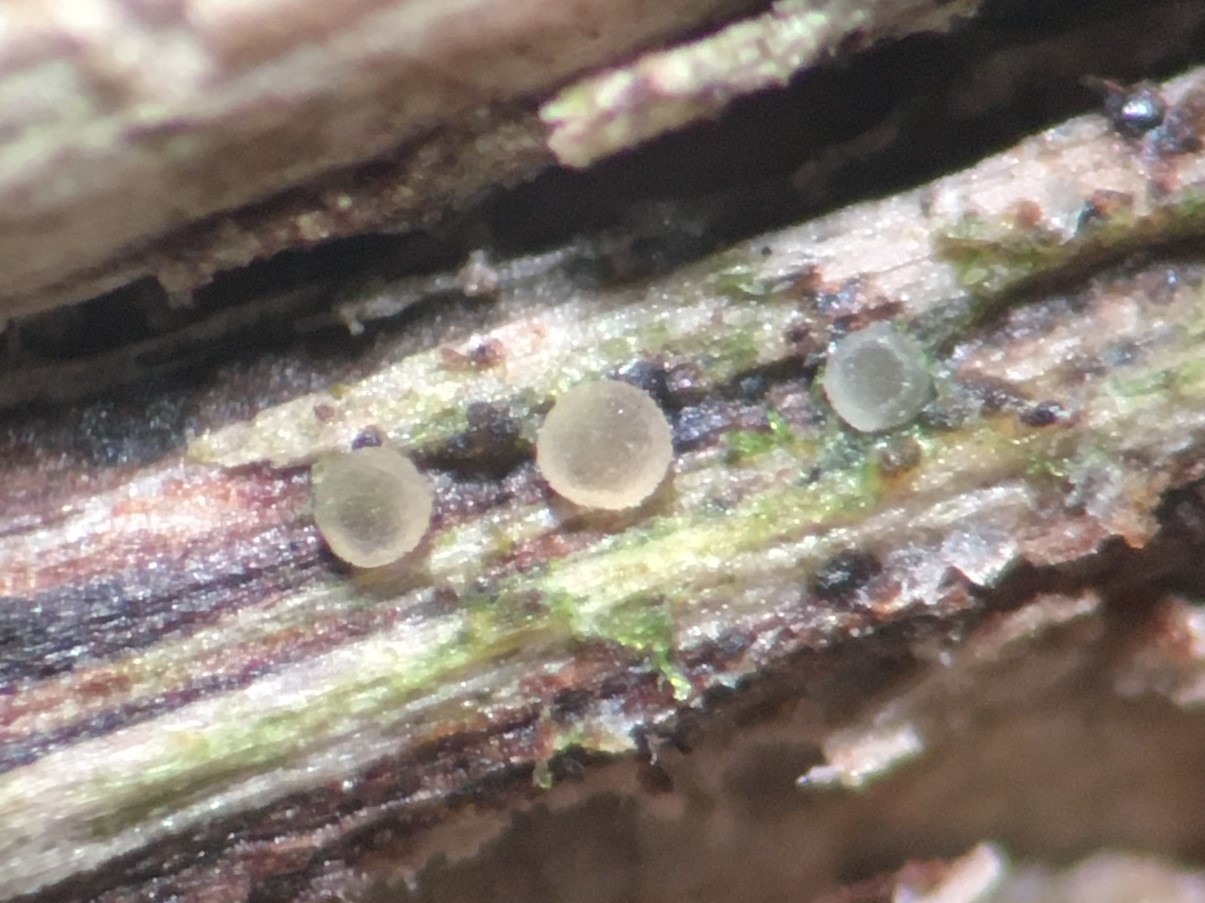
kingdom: Fungi
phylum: Ascomycota
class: Leotiomycetes
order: Helotiales
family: Pezizellaceae
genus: Pezizella
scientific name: Pezizella
